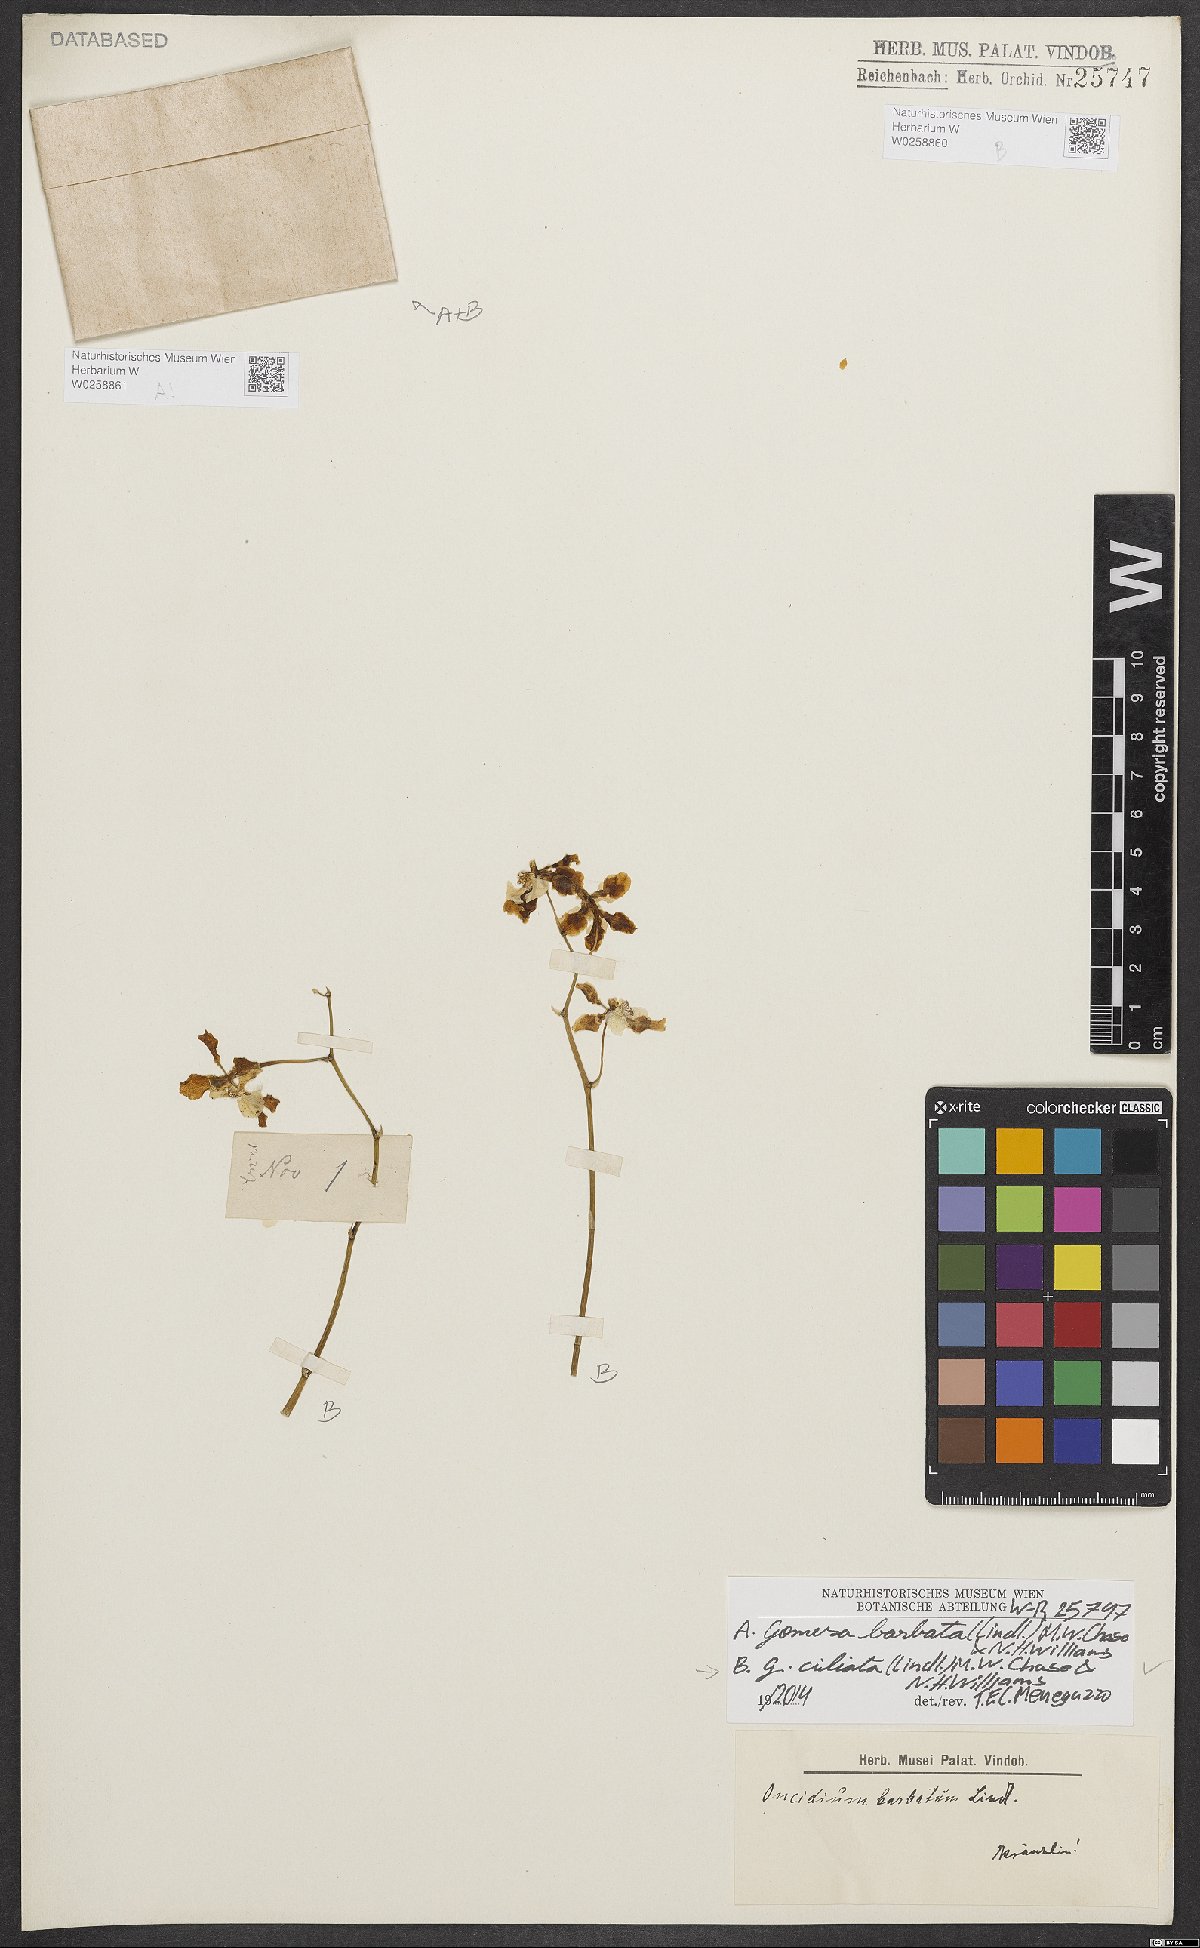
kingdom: Plantae
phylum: Tracheophyta
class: Liliopsida
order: Asparagales
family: Orchidaceae
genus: Gomesa
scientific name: Gomesa barbata
